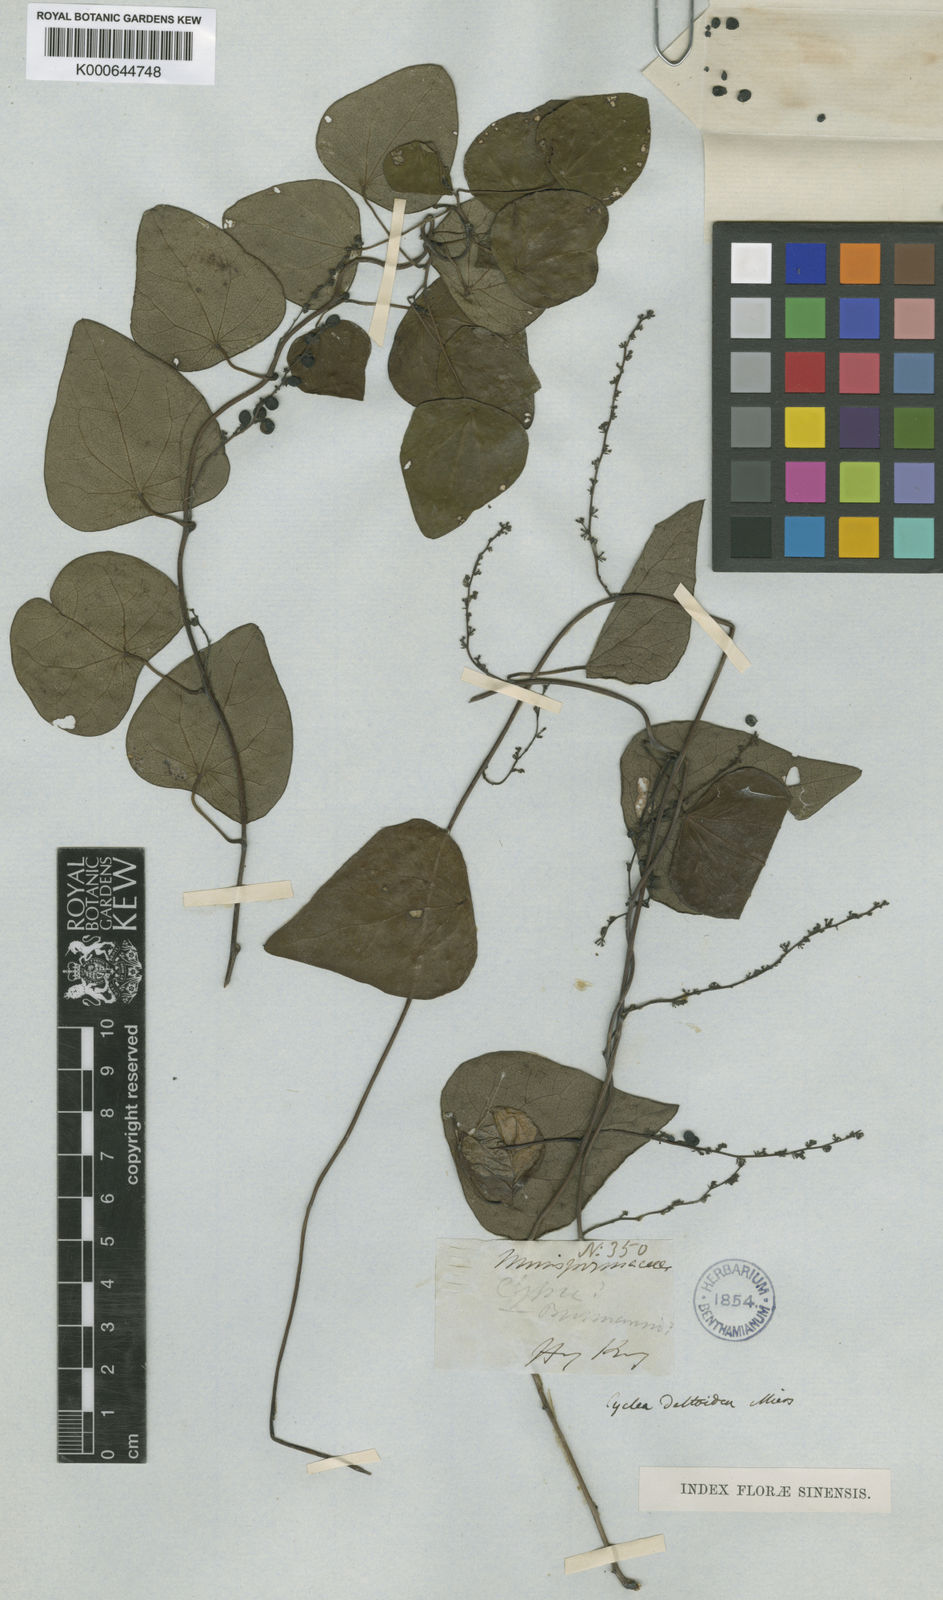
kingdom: Plantae
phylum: Tracheophyta
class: Magnoliopsida
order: Ranunculales
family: Menispermaceae
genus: Cyclea
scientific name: Cyclea hypoglauca
